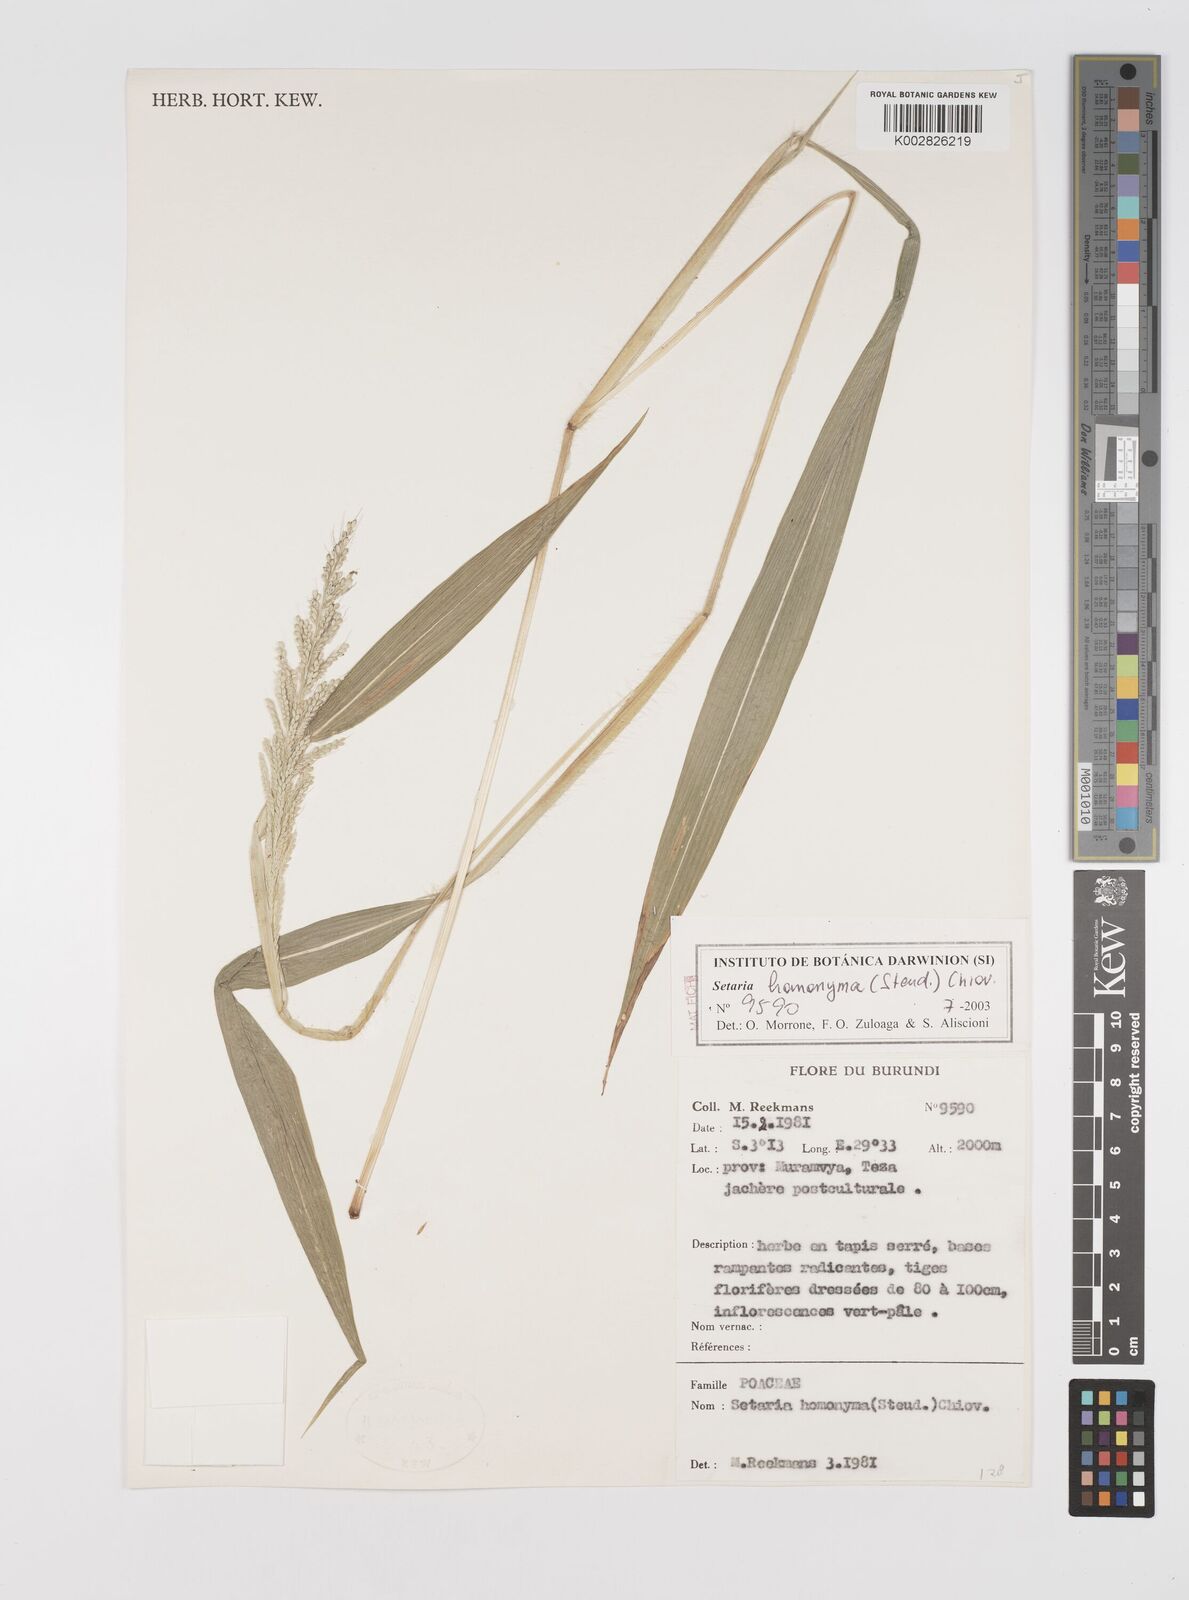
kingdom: Plantae
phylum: Tracheophyta
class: Liliopsida
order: Poales
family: Poaceae
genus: Setaria
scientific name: Setaria homonyma
